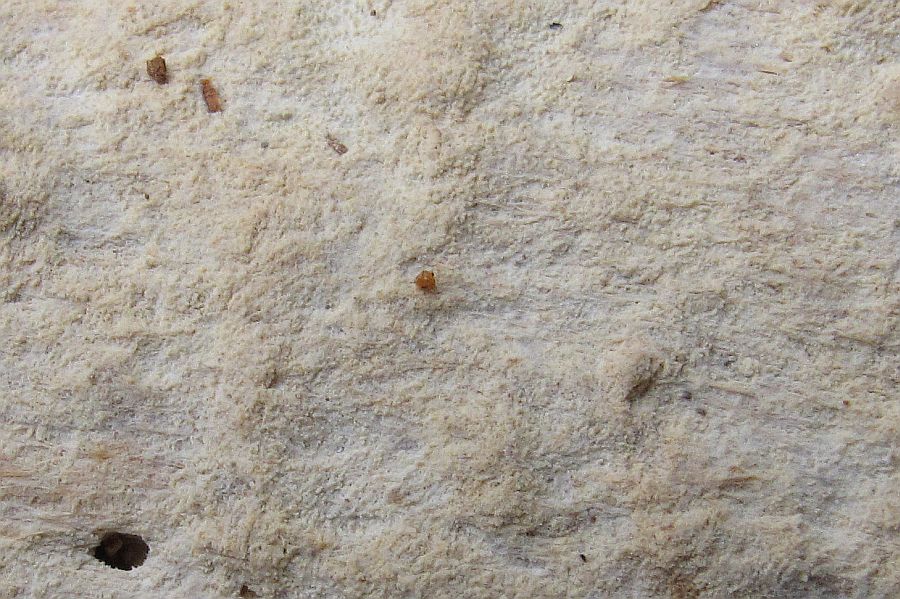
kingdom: Fungi
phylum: Basidiomycota
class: Agaricomycetes
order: Hymenochaetales
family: Rickenellaceae
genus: Resinicium
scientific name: Resinicium bicolor
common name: almindelig vokstand
